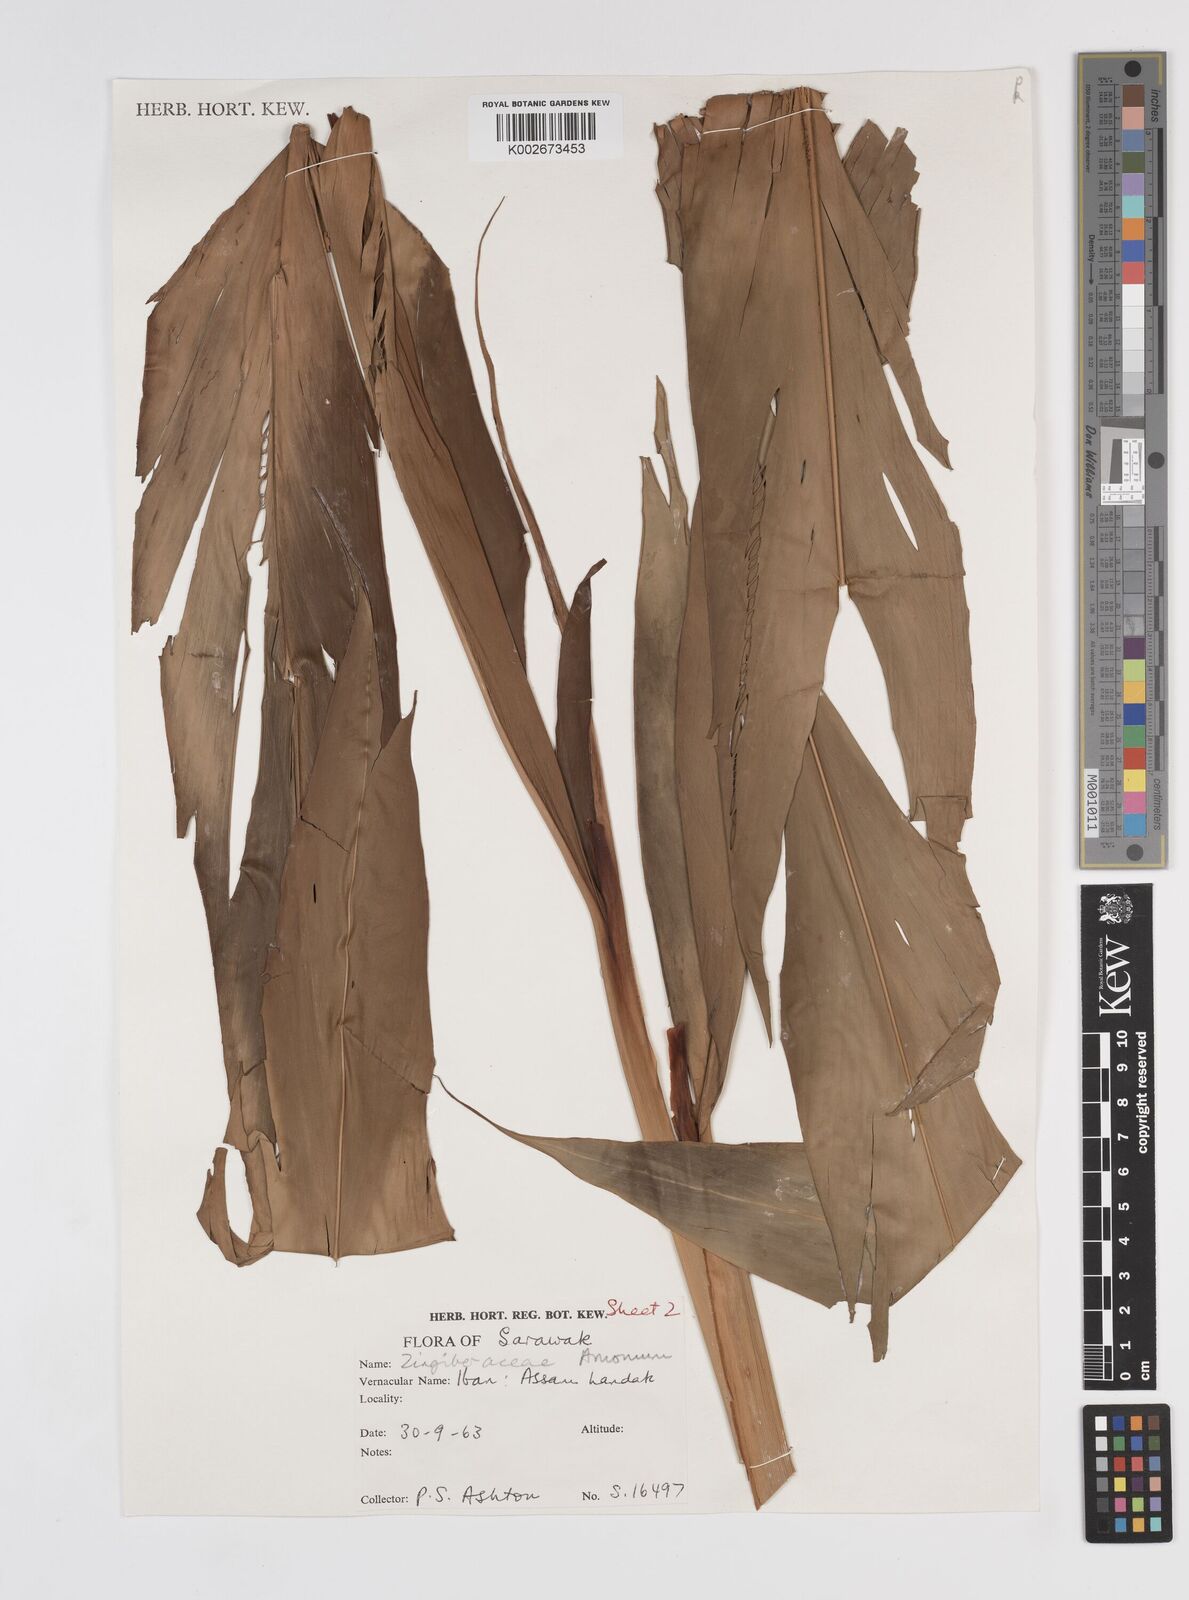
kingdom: Plantae
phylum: Tracheophyta
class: Liliopsida
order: Zingiberales
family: Zingiberaceae
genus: Sulettaria
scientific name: Sulettaria ligulata
